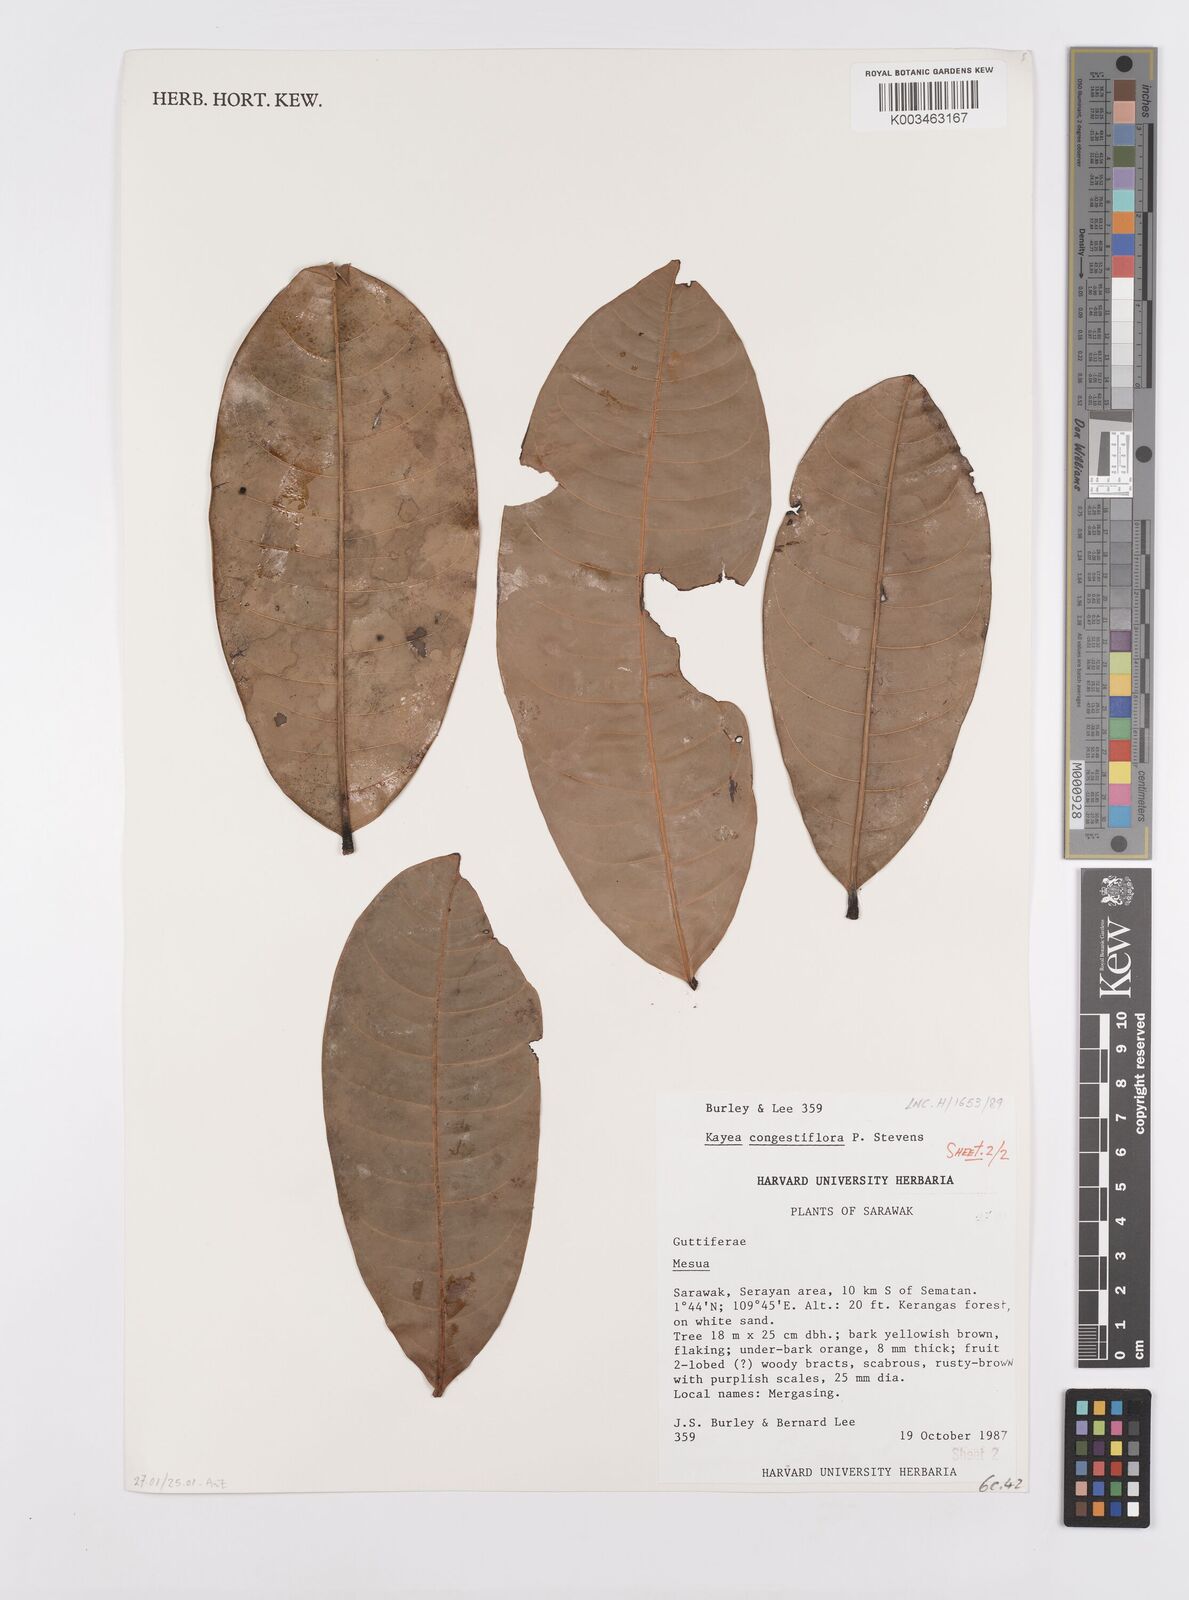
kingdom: Plantae
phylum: Tracheophyta
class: Magnoliopsida
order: Malpighiales
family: Calophyllaceae
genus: Kayea
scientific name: Kayea
